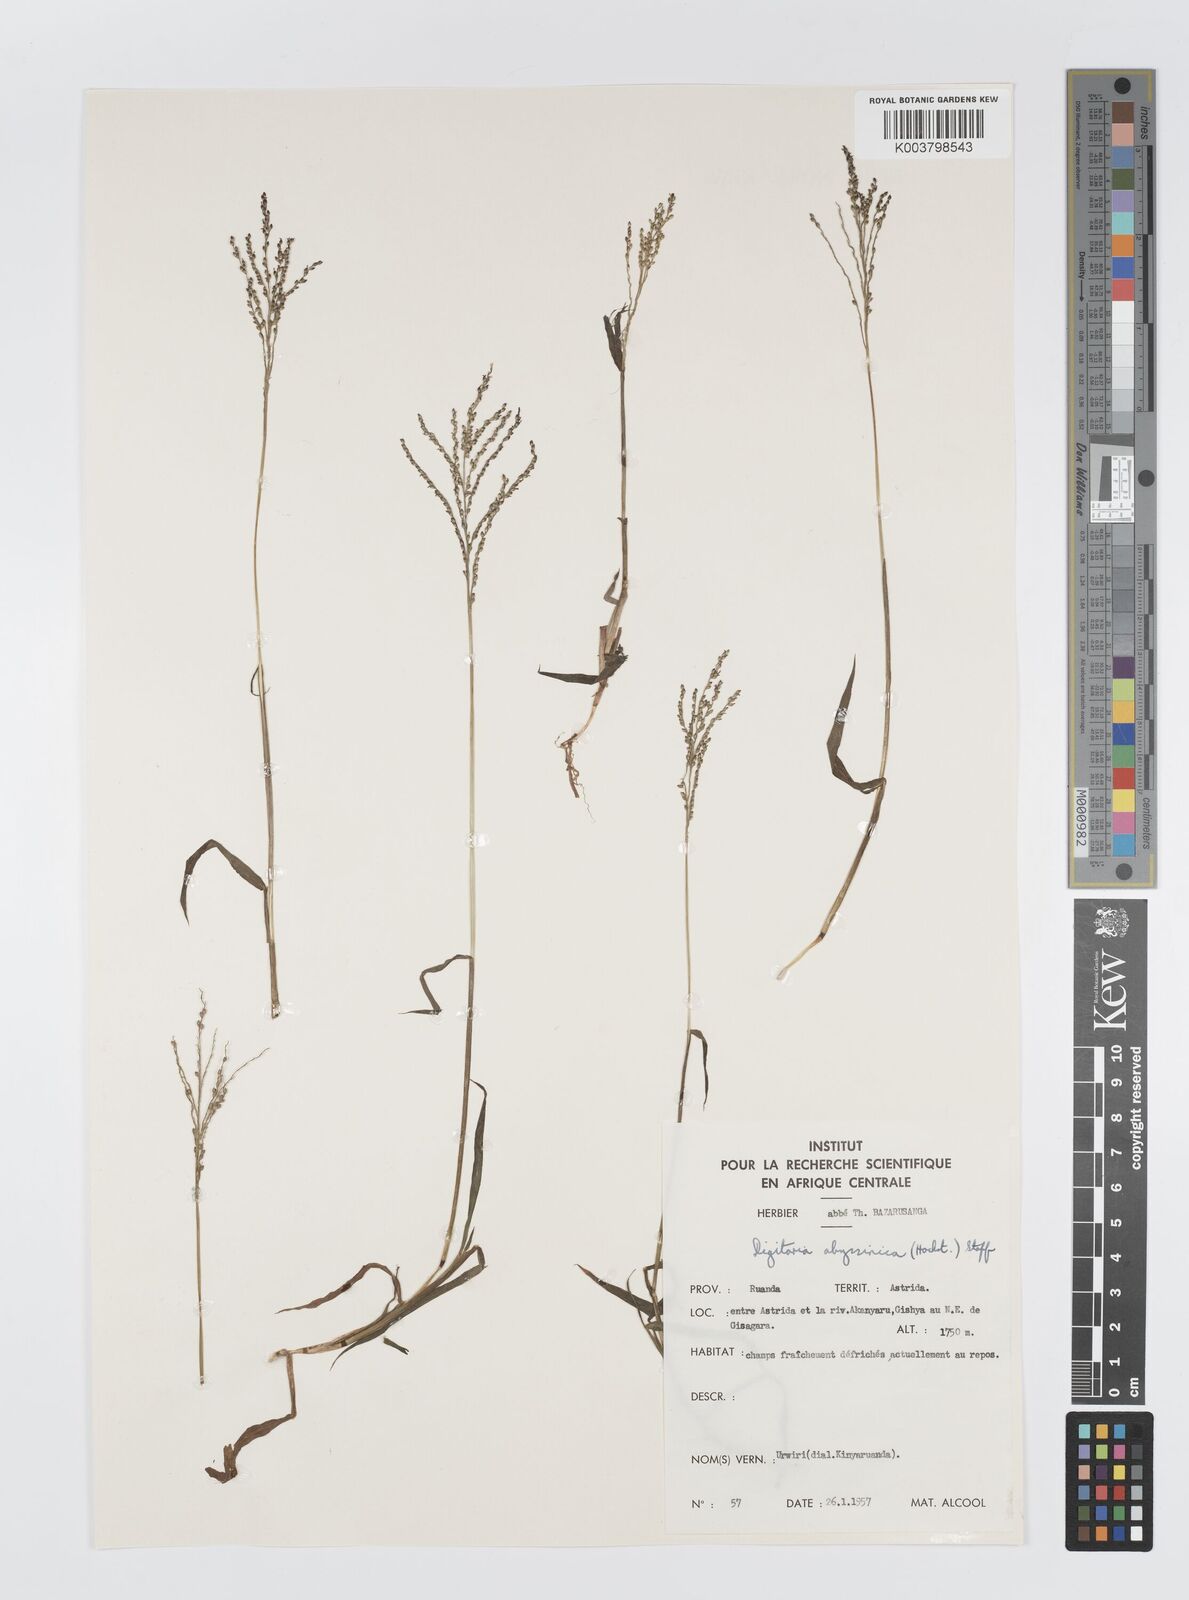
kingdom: Plantae
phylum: Tracheophyta
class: Liliopsida
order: Poales
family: Poaceae
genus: Digitaria
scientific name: Digitaria abyssinica
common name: African couchgrass
